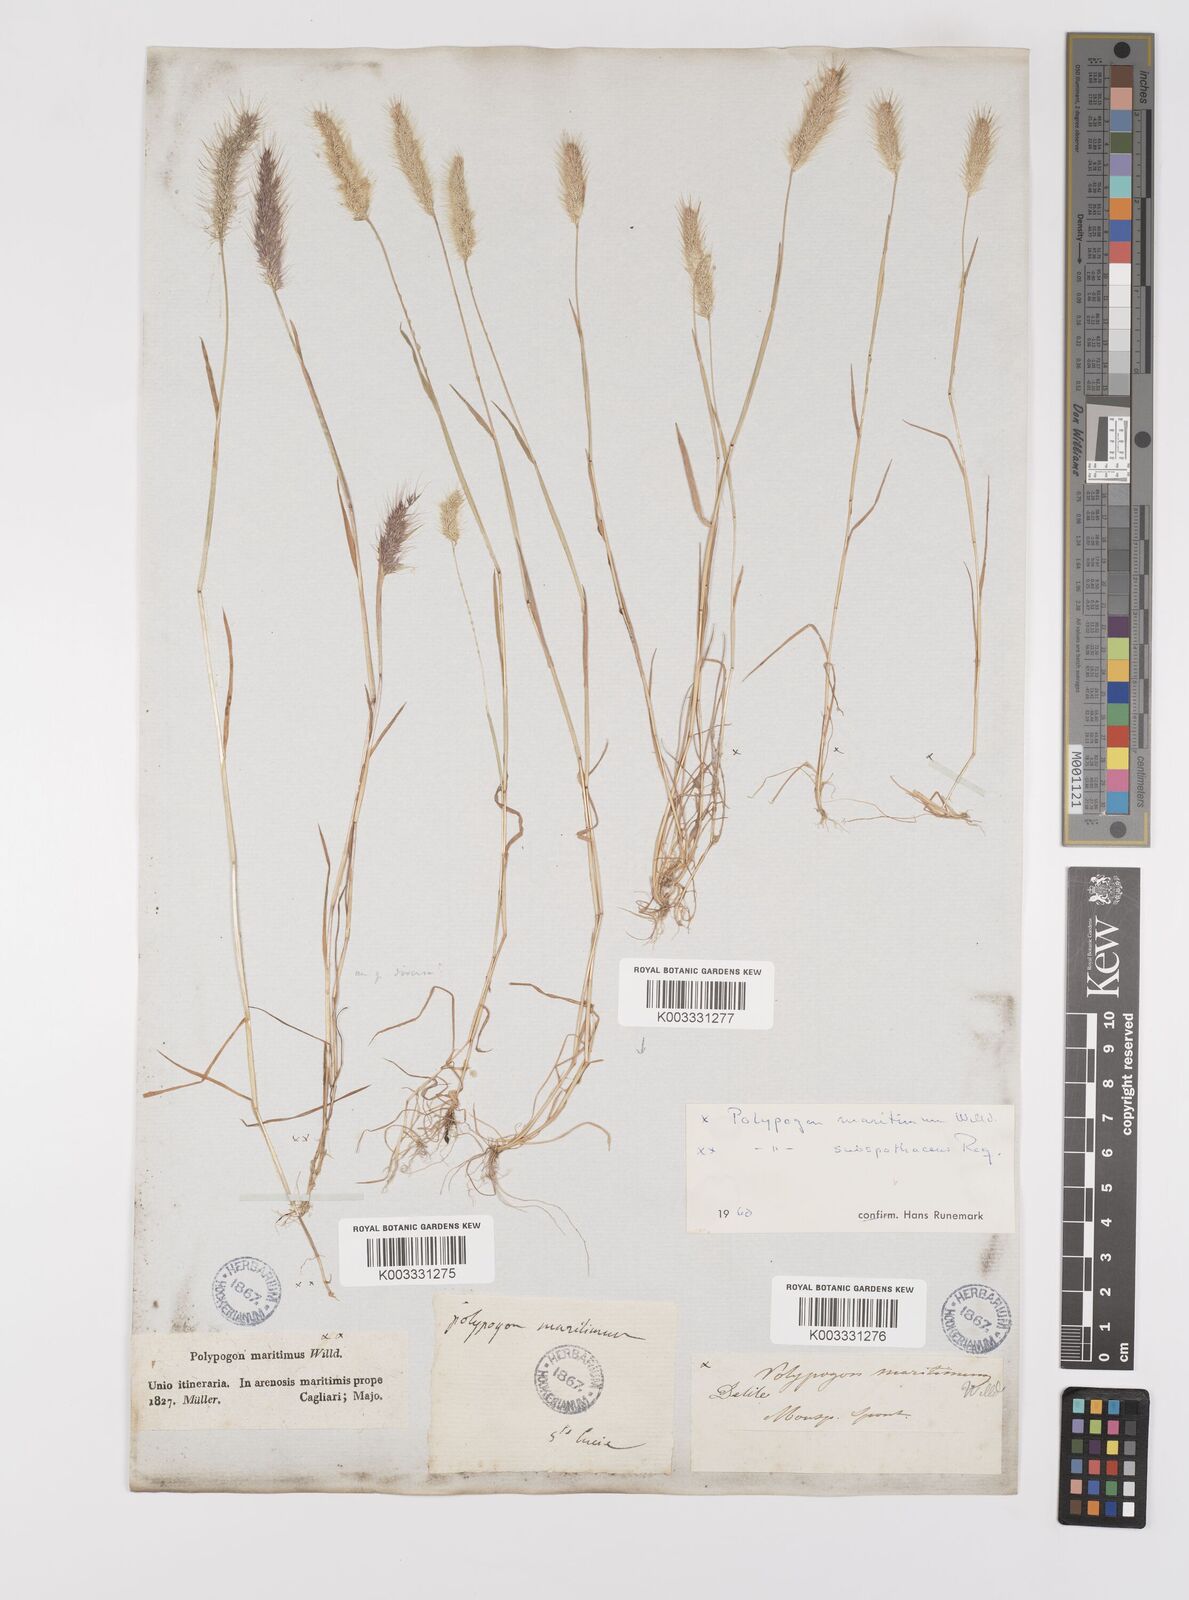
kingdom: Plantae
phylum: Tracheophyta
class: Liliopsida
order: Poales
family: Poaceae
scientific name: Poaceae
